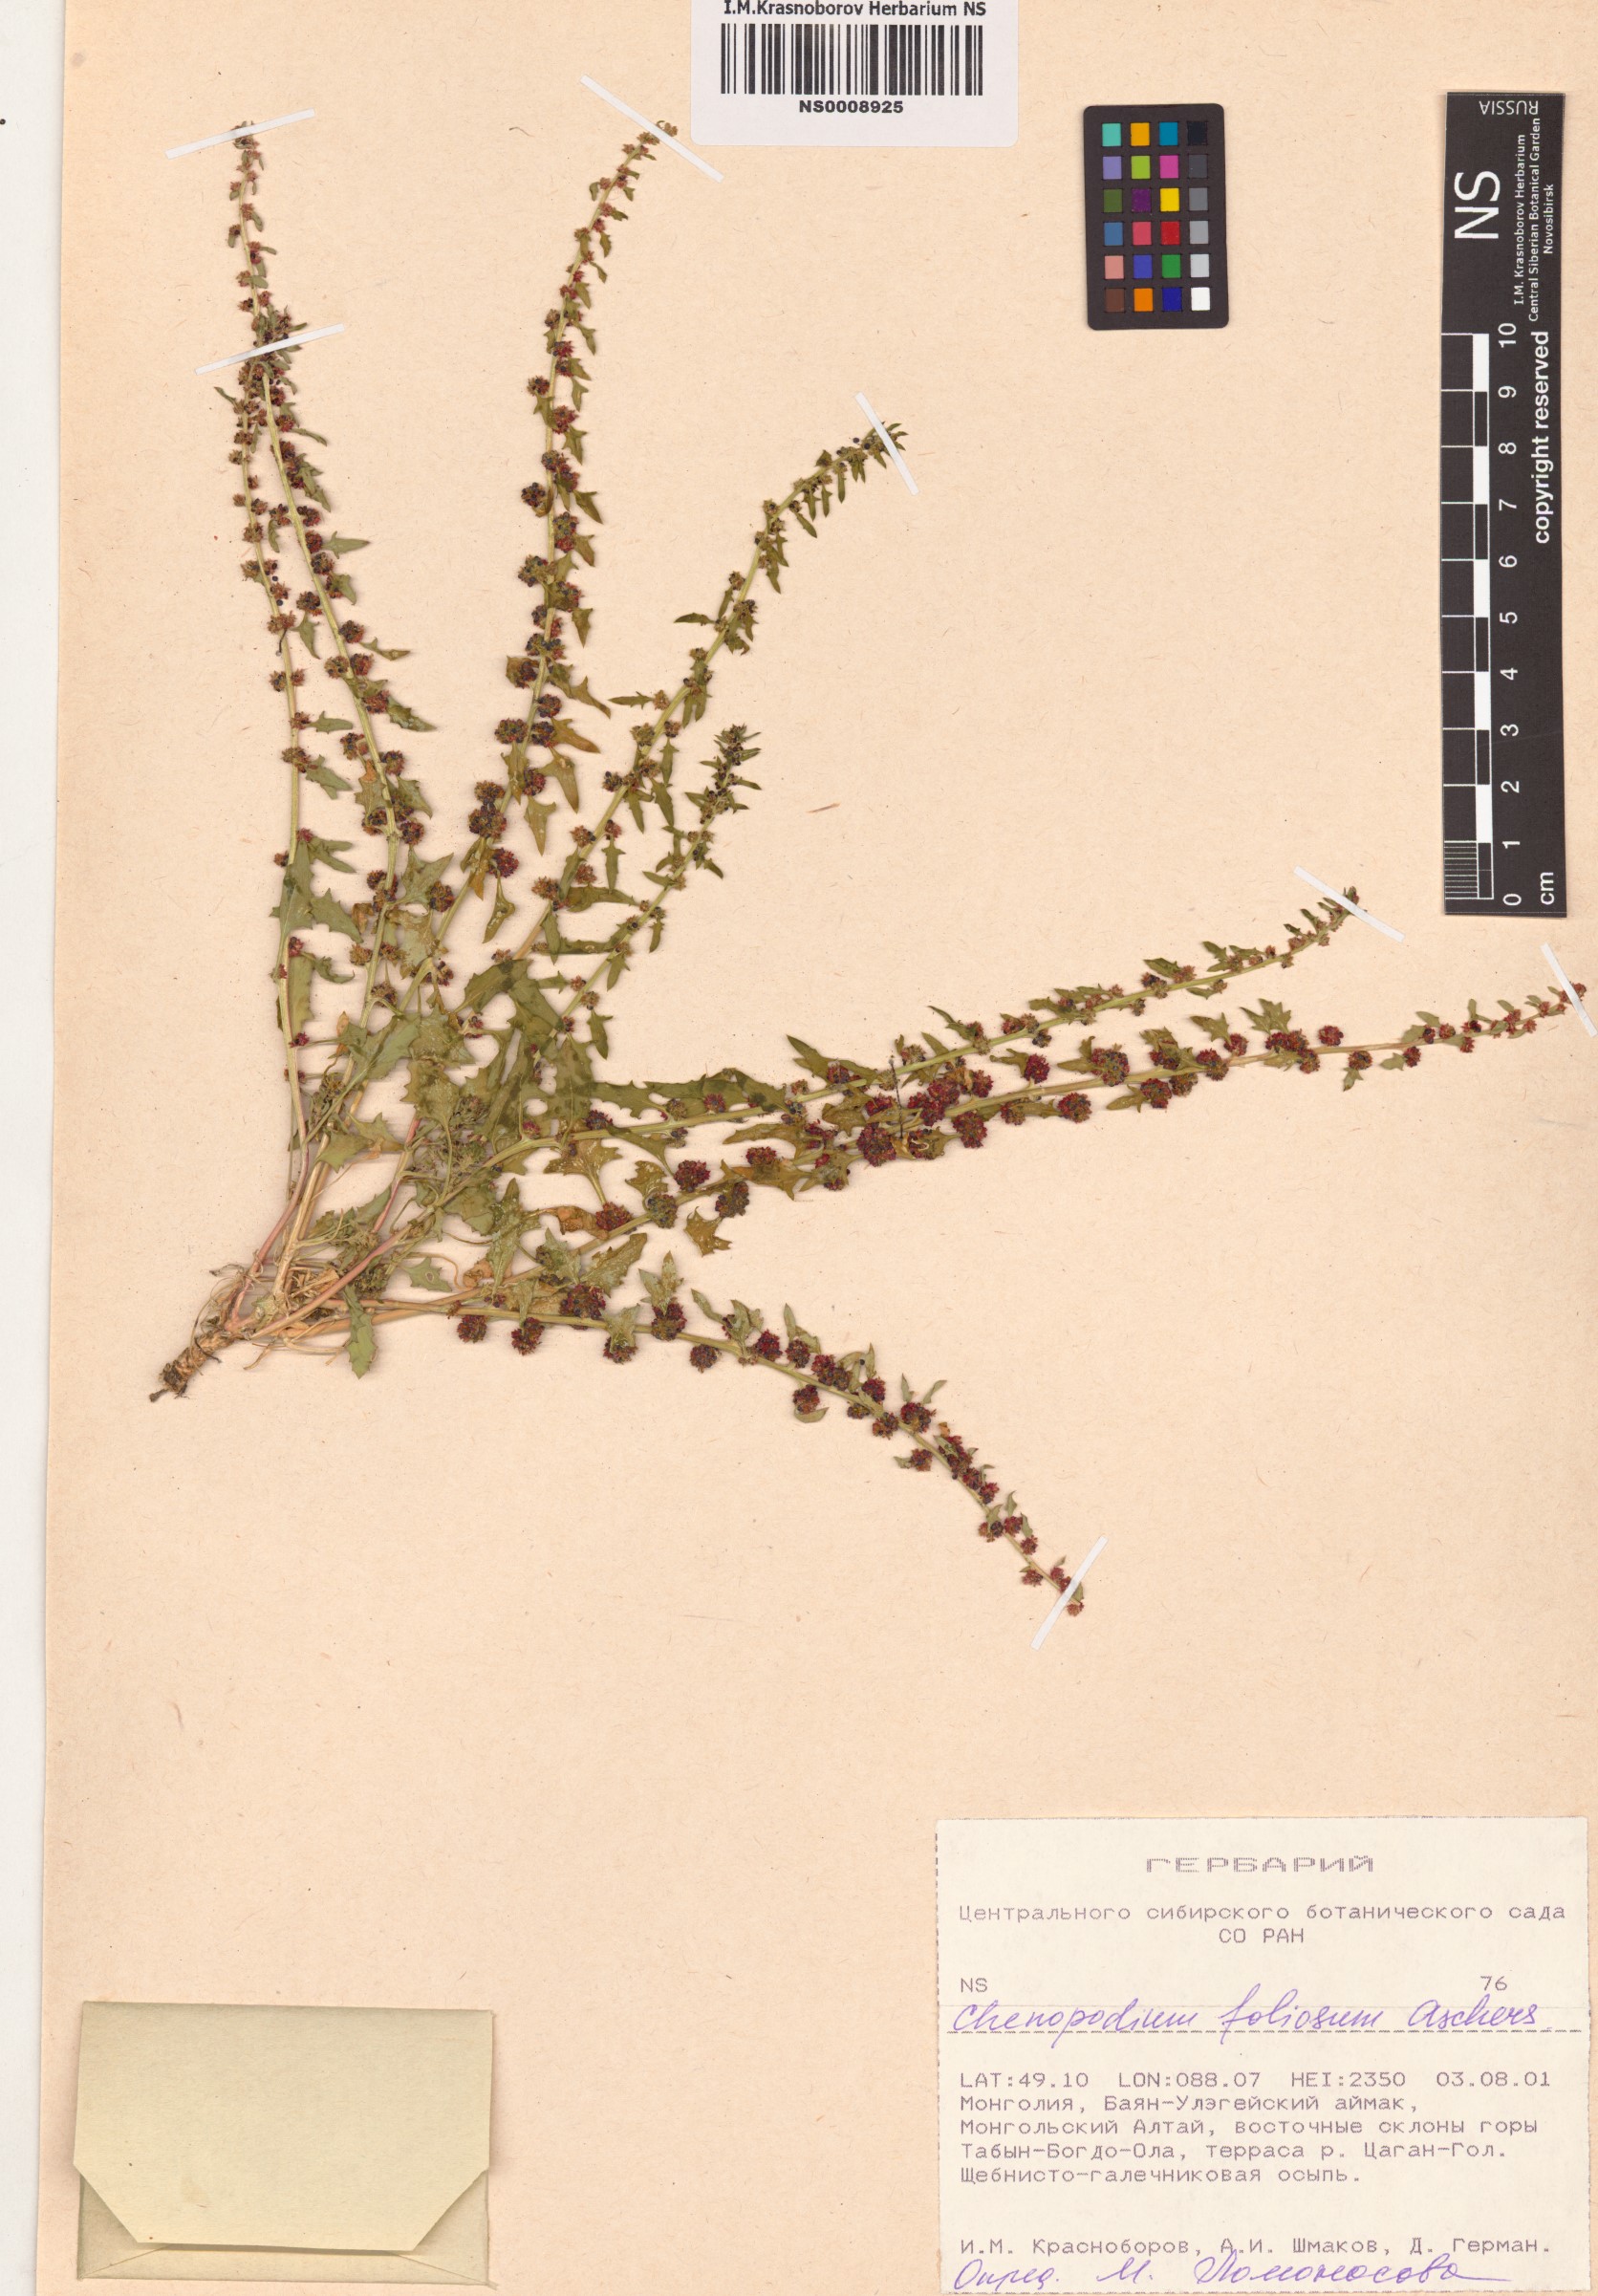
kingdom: Plantae
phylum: Tracheophyta
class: Magnoliopsida
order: Caryophyllales
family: Amaranthaceae
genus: Blitum
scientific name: Blitum virgatum
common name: Strawberry goosefoot
